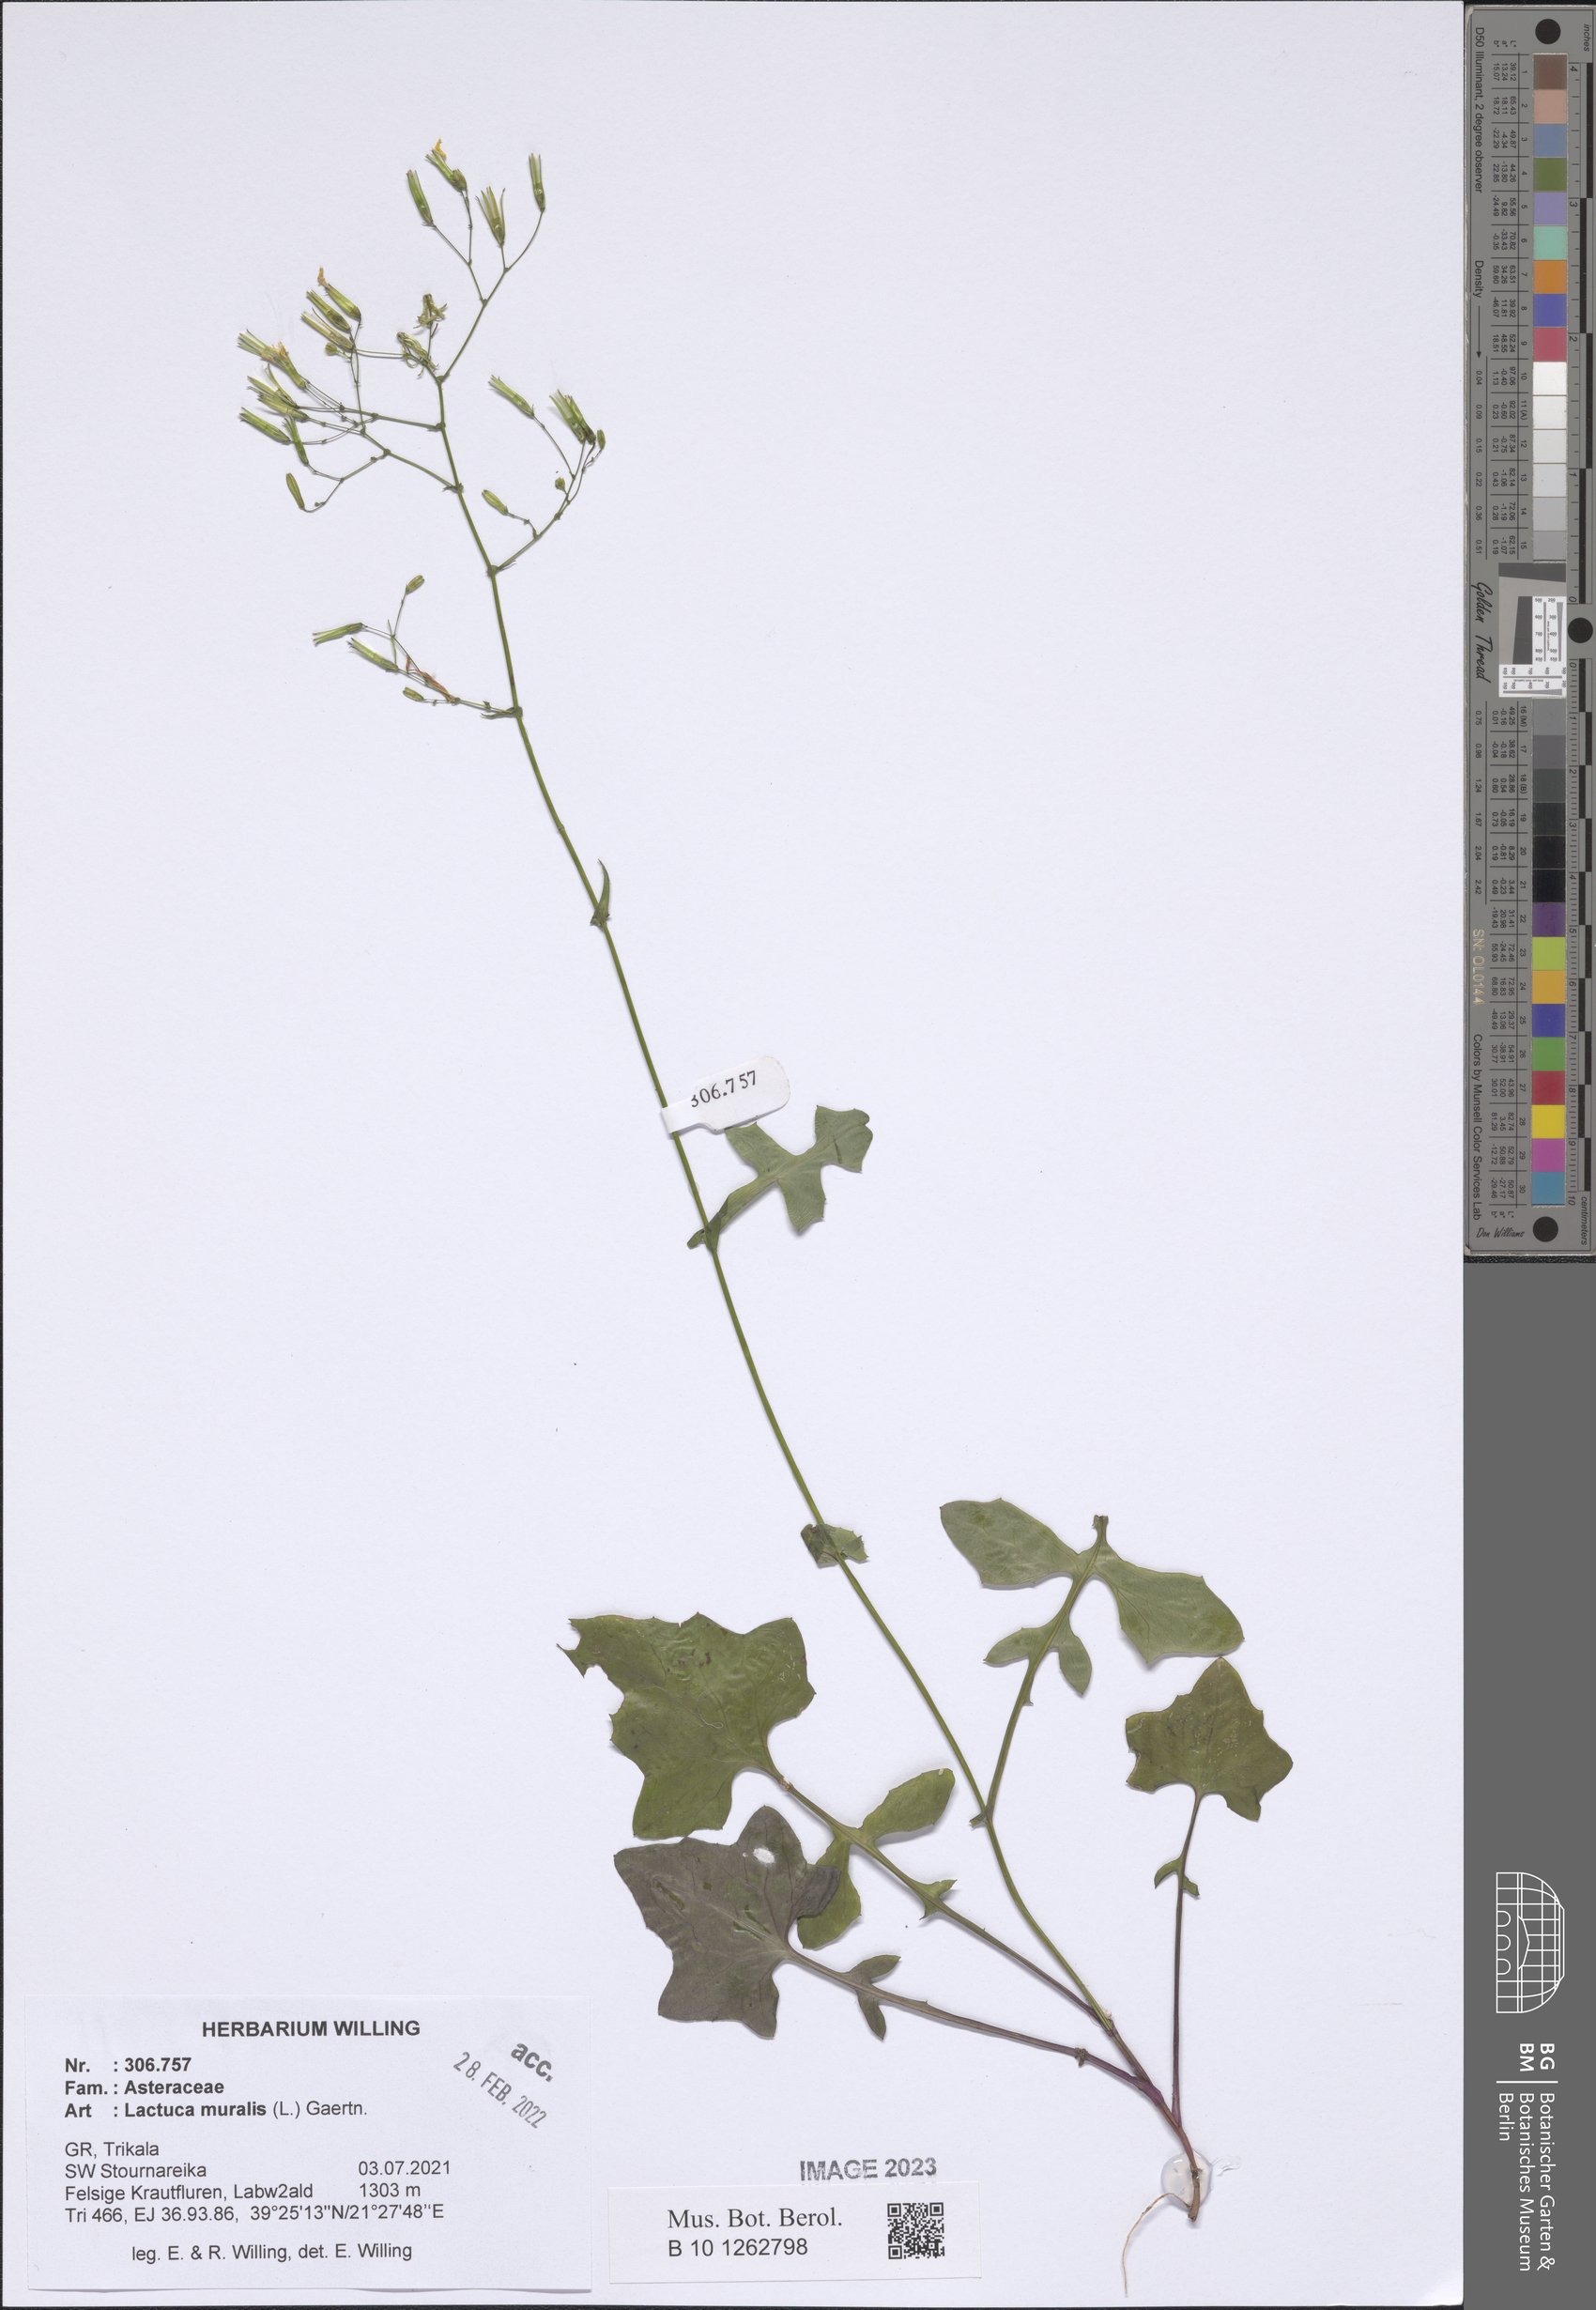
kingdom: Plantae
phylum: Tracheophyta
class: Magnoliopsida
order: Asterales
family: Asteraceae
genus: Mycelis
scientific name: Mycelis muralis
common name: Wall lettuce
